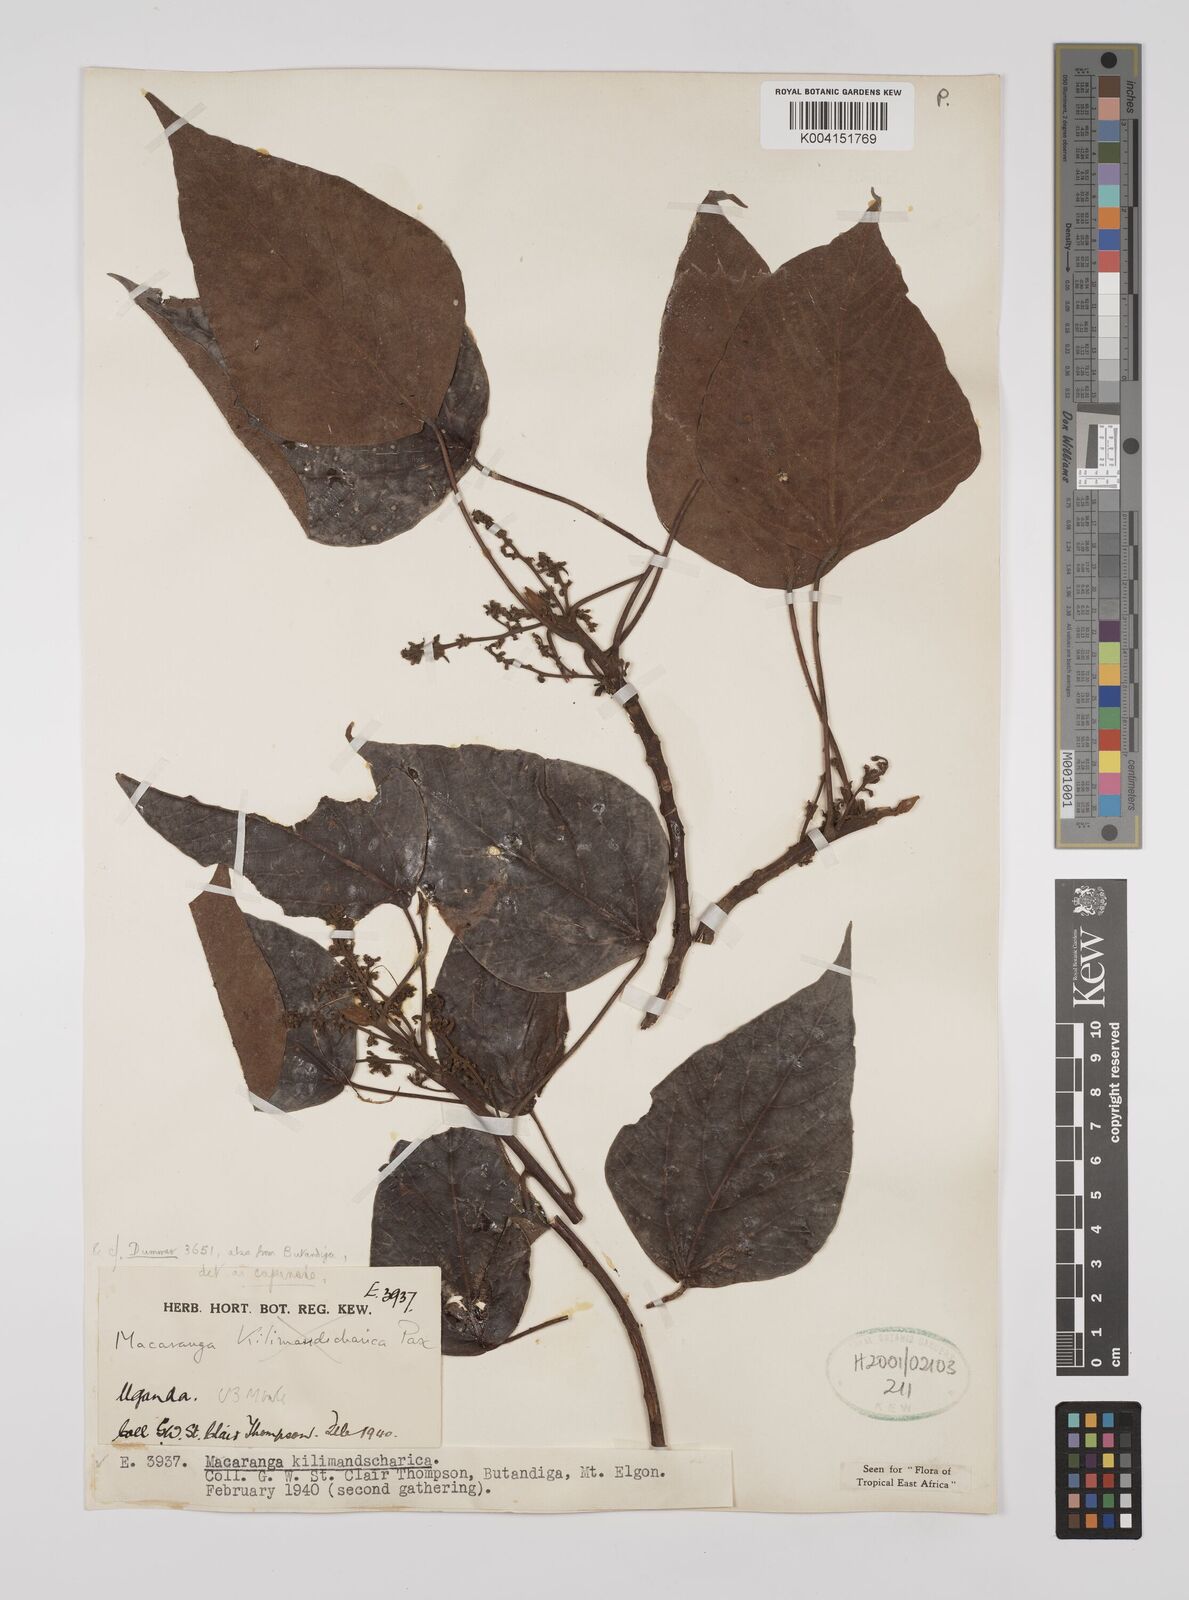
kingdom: Plantae
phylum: Tracheophyta
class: Magnoliopsida
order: Malpighiales
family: Euphorbiaceae
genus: Macaranga
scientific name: Macaranga capensis
